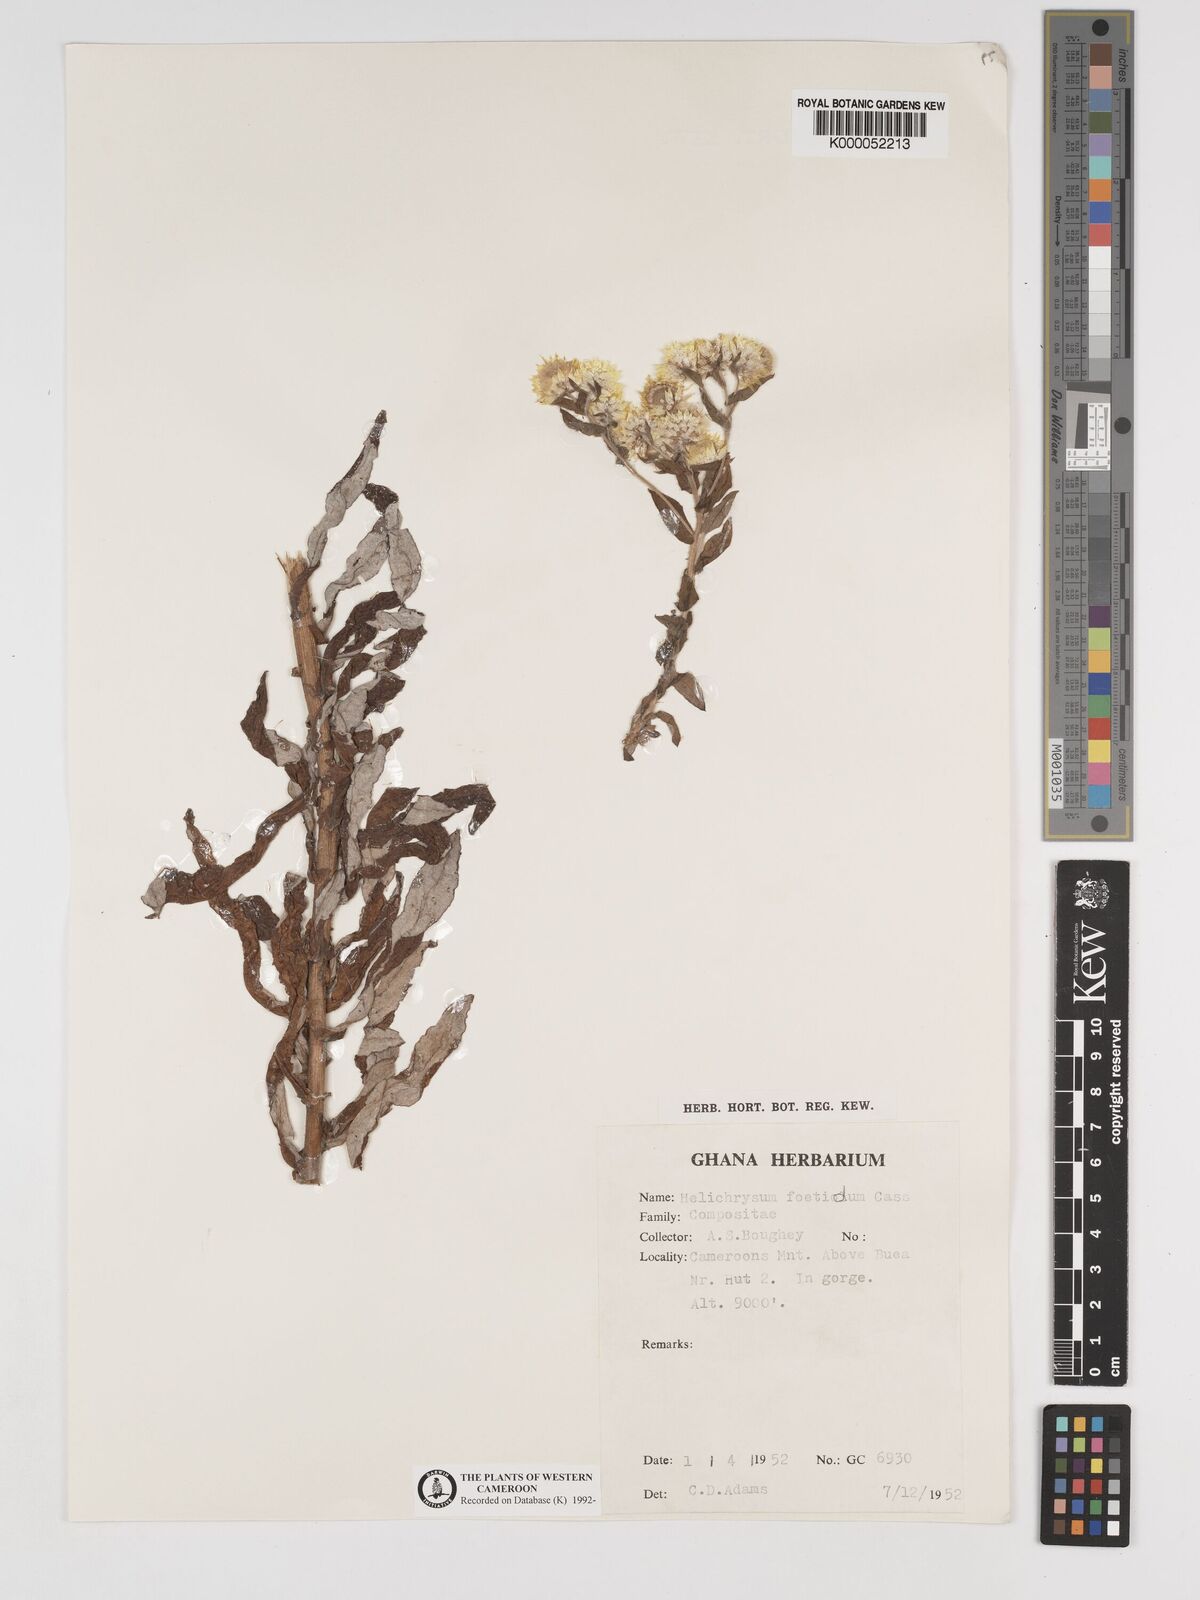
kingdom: Plantae
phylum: Tracheophyta
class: Magnoliopsida
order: Asterales
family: Asteraceae
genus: Helichrysum
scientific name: Helichrysum foetidum
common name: Stinking everlasting
